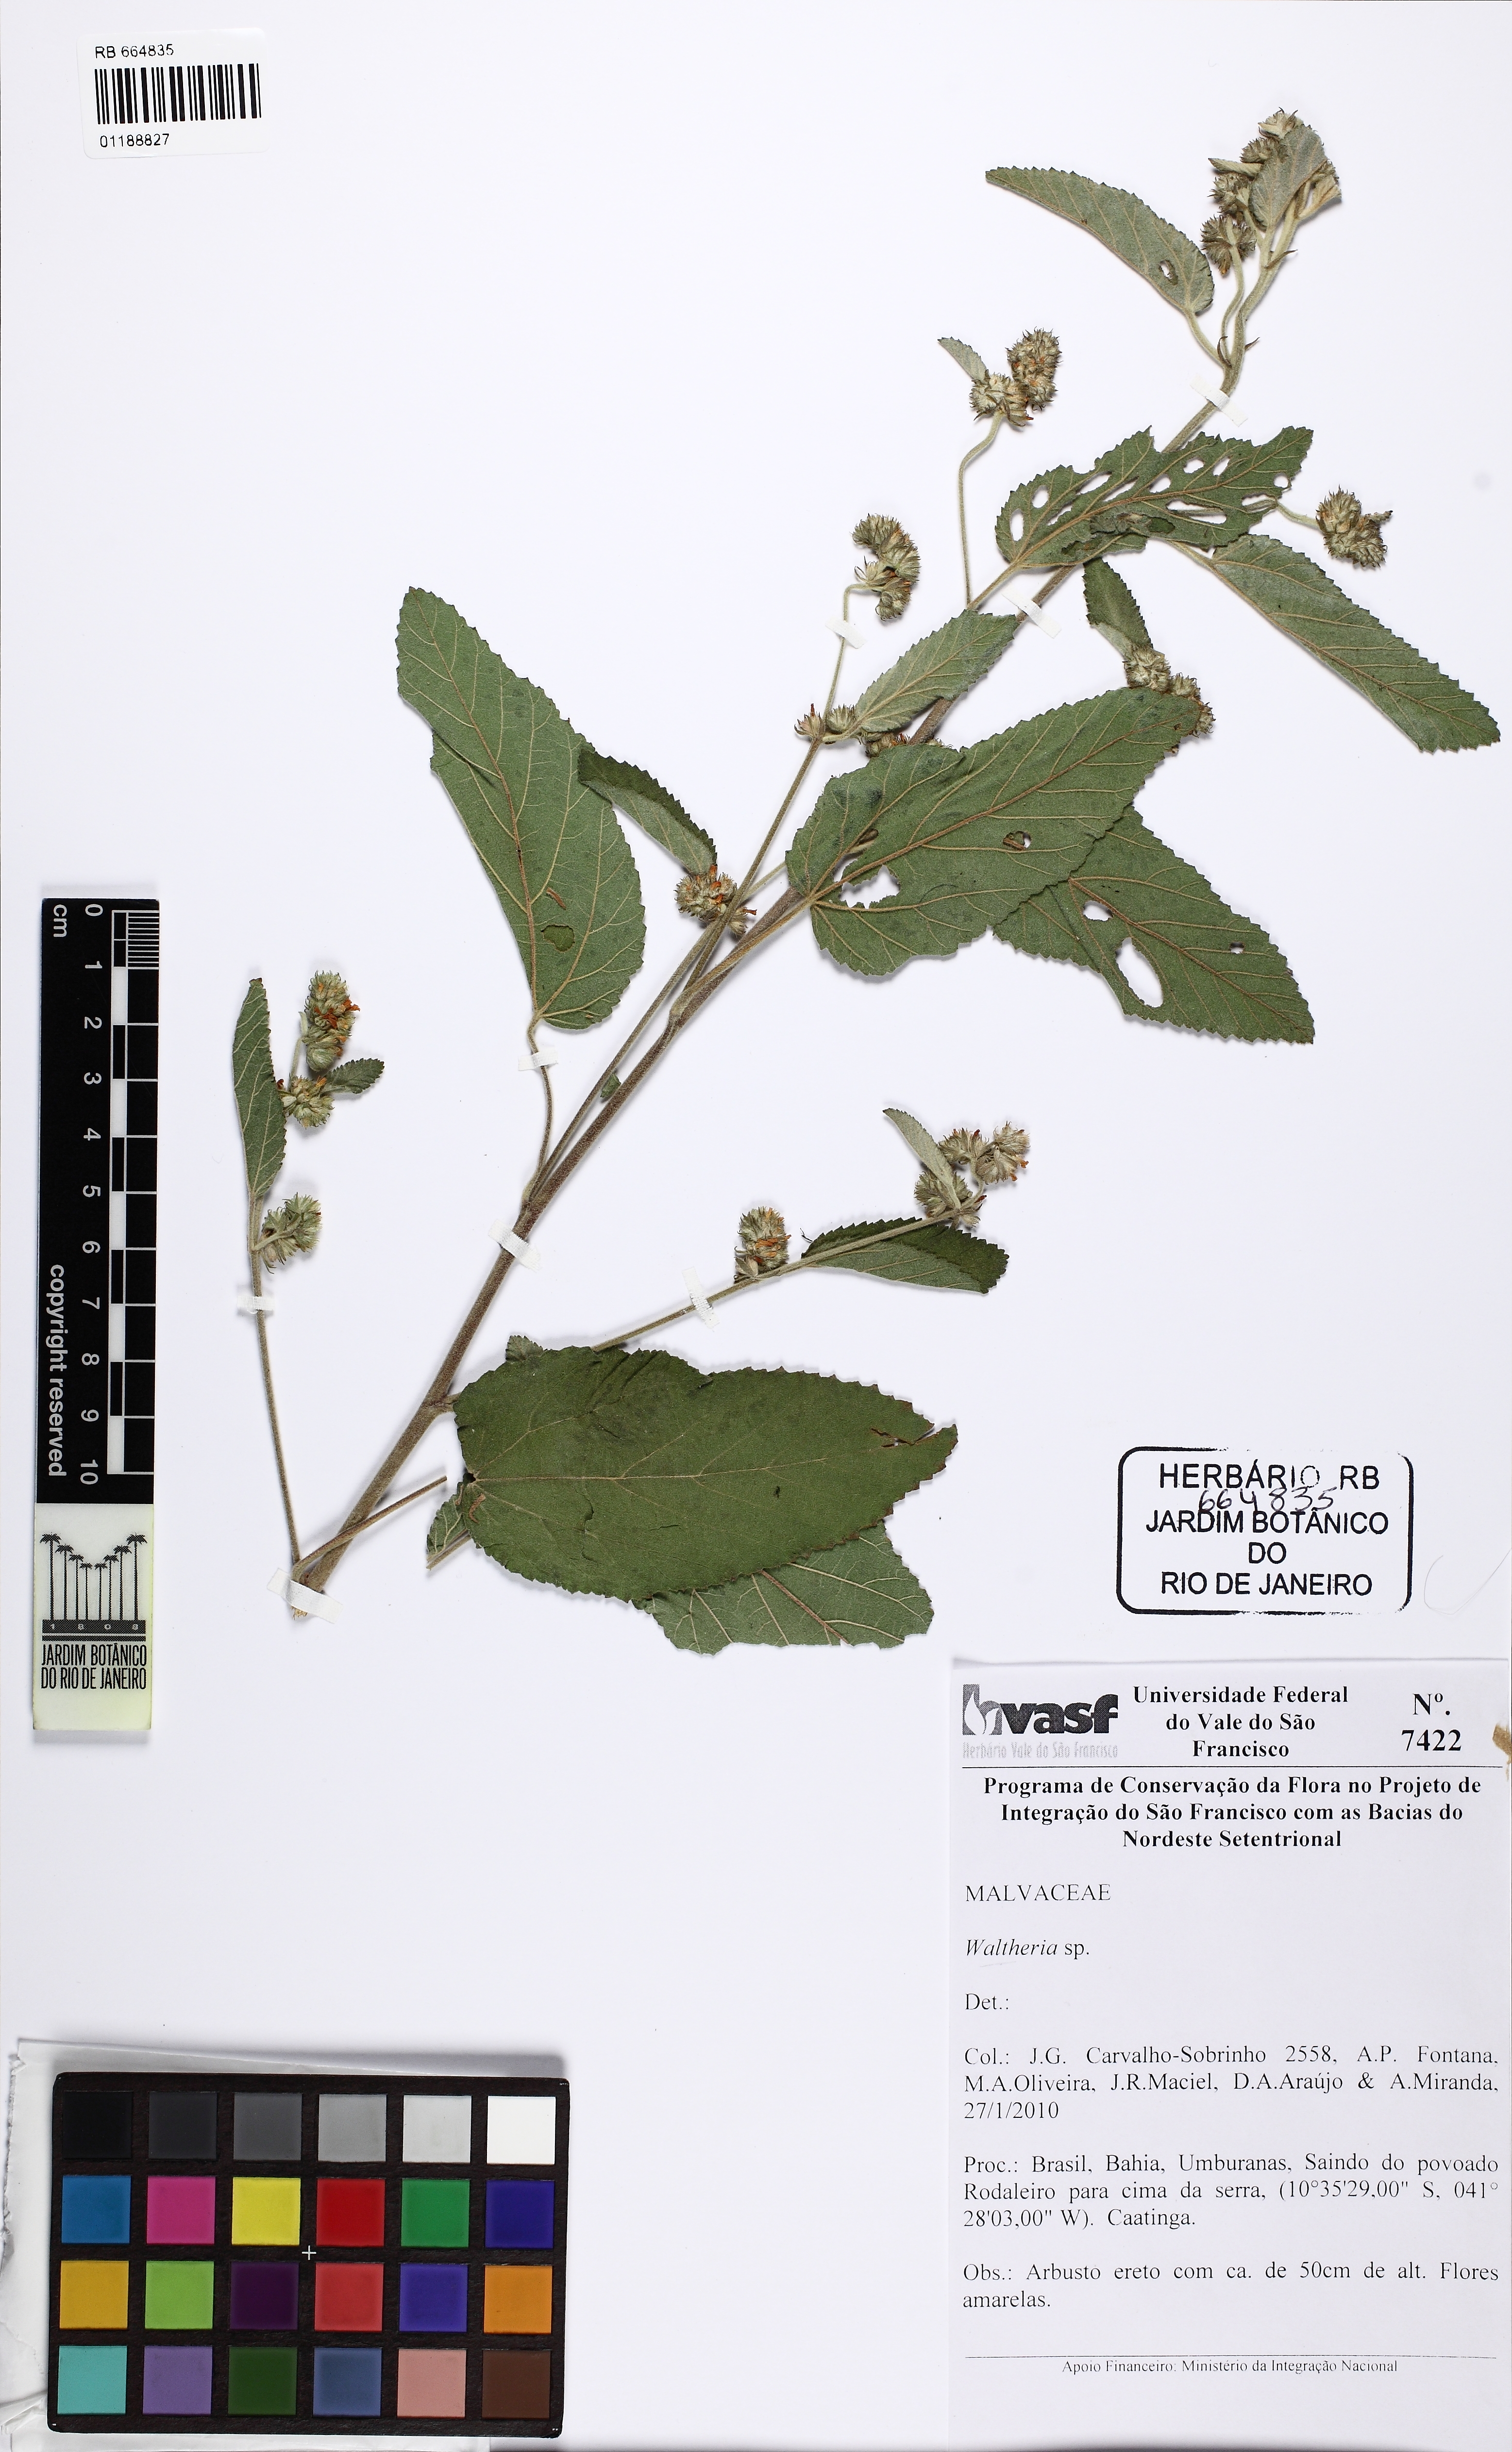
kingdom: Plantae
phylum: Tracheophyta
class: Magnoliopsida
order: Malvales
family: Malvaceae
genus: Waltheria
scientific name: Waltheria albicans
